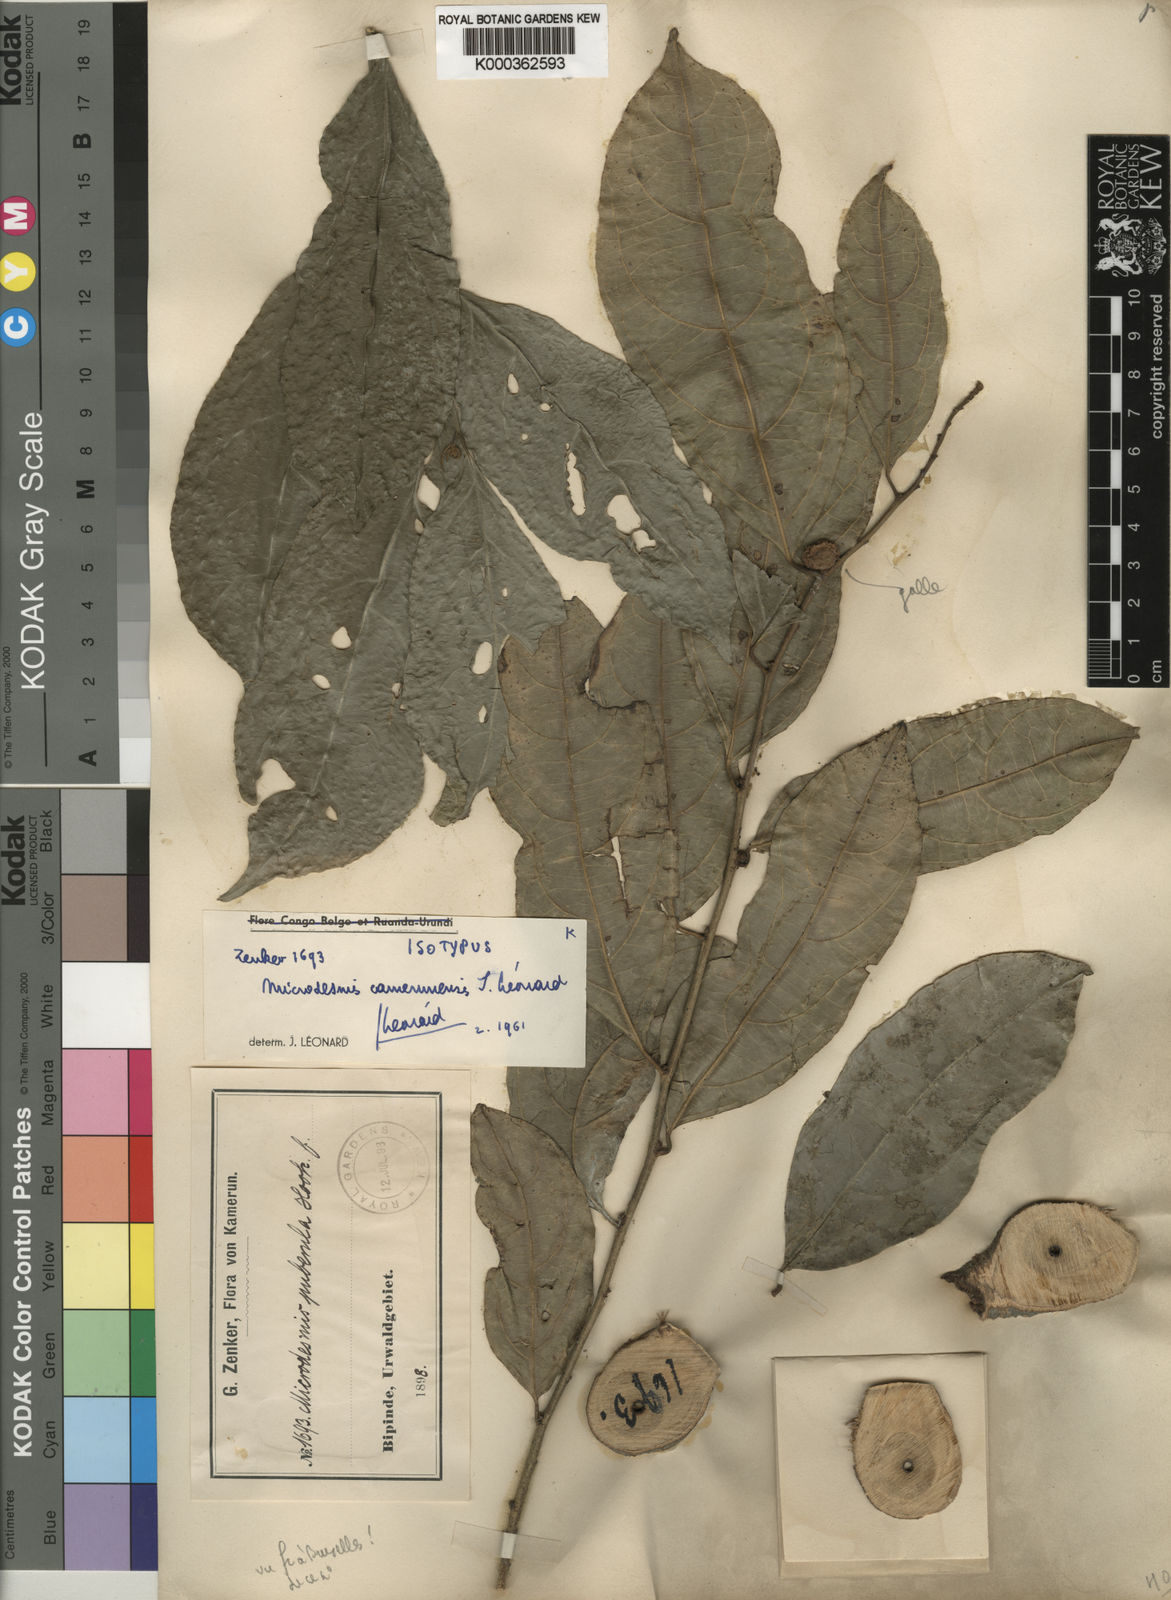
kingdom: Plantae
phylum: Tracheophyta
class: Magnoliopsida
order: Malpighiales
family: Pandaceae
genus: Microdesmis
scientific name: Microdesmis
